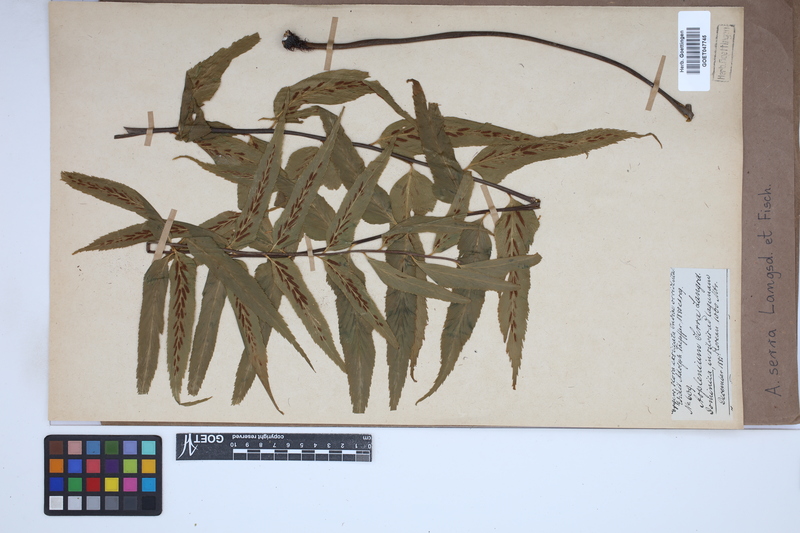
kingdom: Plantae
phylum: Tracheophyta
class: Polypodiopsida
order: Polypodiales
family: Aspleniaceae
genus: Asplenium
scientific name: Asplenium serra
